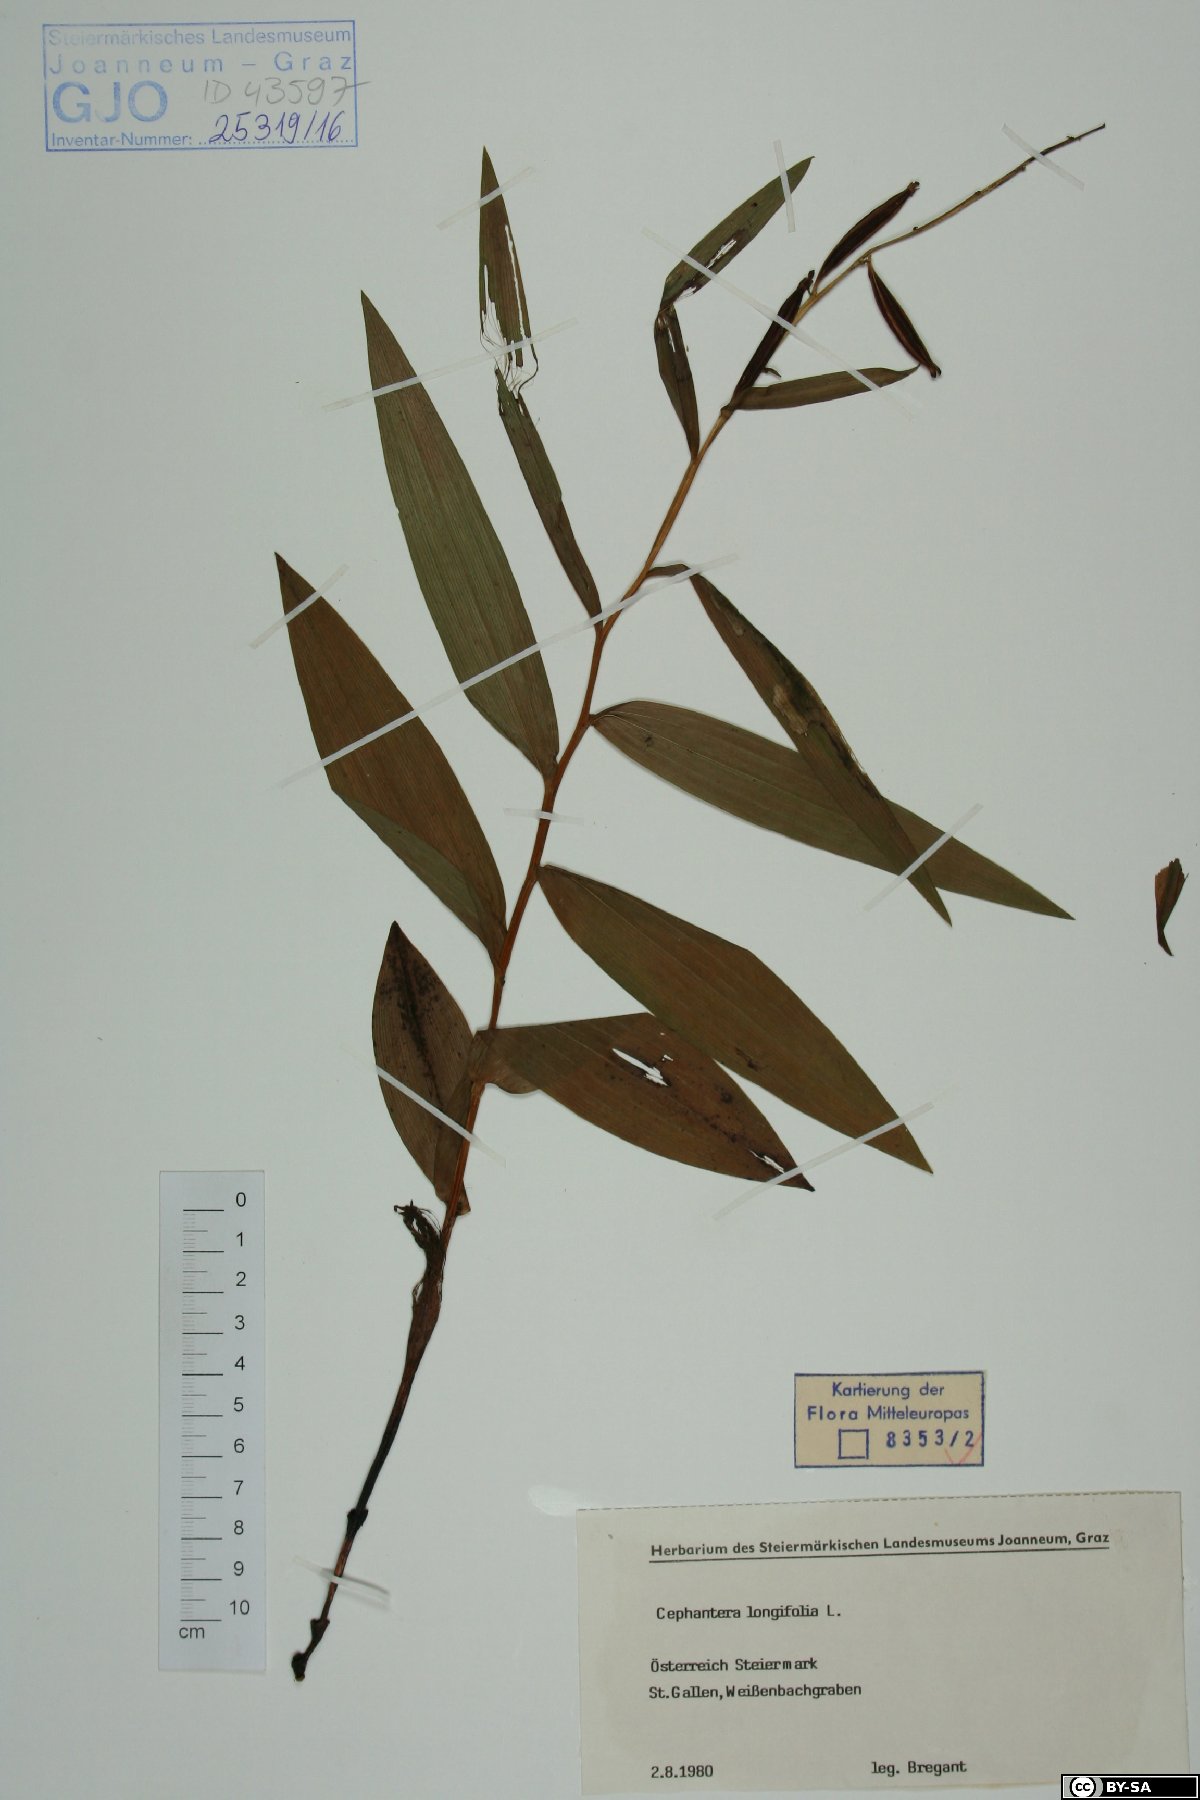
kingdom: Plantae
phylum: Tracheophyta
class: Liliopsida
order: Asparagales
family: Orchidaceae
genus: Cephalanthera
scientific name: Cephalanthera longifolia
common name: Narrow-leaved helleborine
